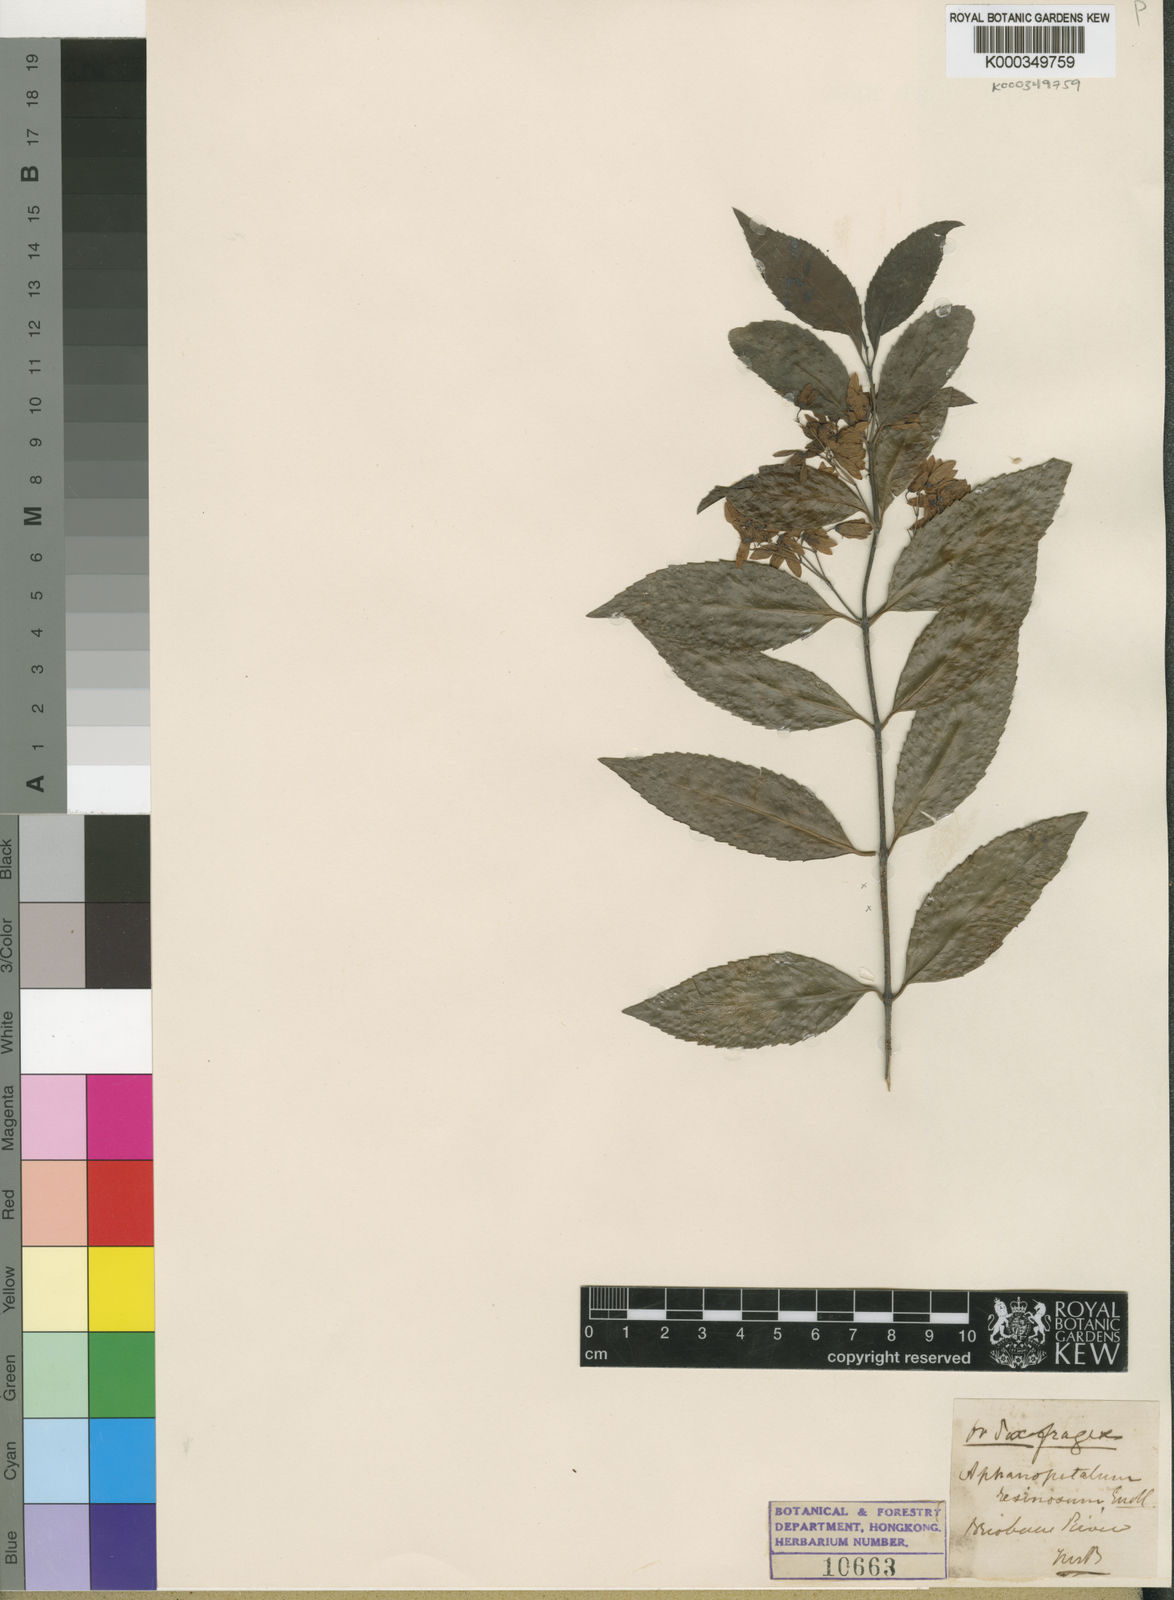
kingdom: Plantae
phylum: Tracheophyta
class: Magnoliopsida
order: Saxifragales
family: Aphanopetalaceae
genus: Aphanopetalum
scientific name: Aphanopetalum resinosum
